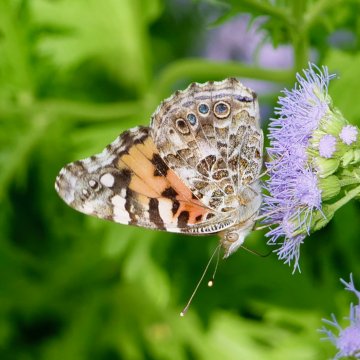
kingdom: Animalia
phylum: Arthropoda
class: Insecta
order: Lepidoptera
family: Nymphalidae
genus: Vanessa
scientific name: Vanessa cardui
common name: Painted Lady
